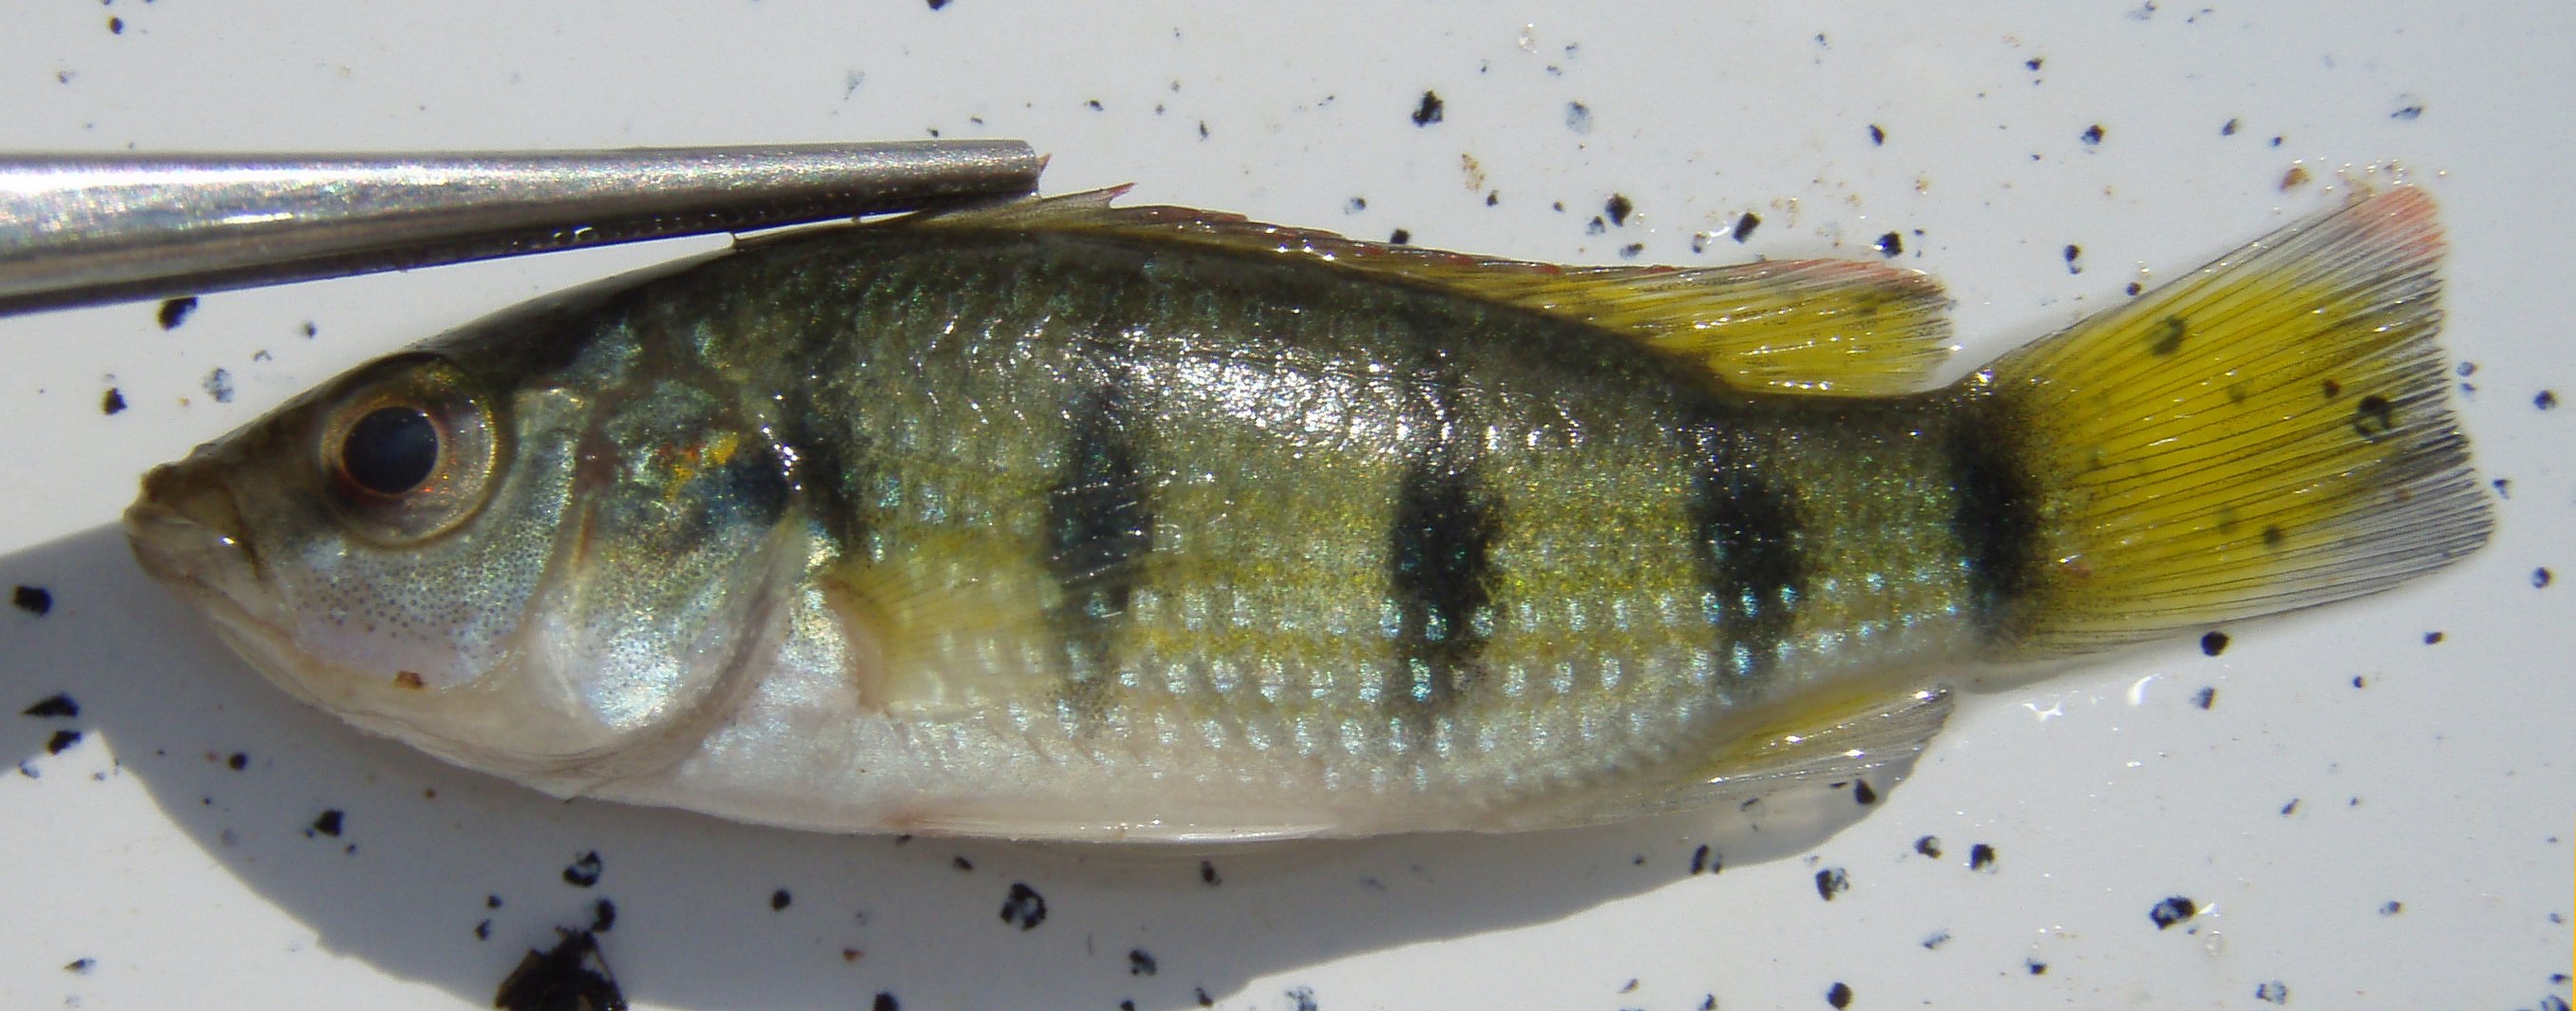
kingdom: Animalia
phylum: Chordata
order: Perciformes
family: Cichlidae
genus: Hemichromis
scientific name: Hemichromis fasciatus
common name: Banded jewelfish
